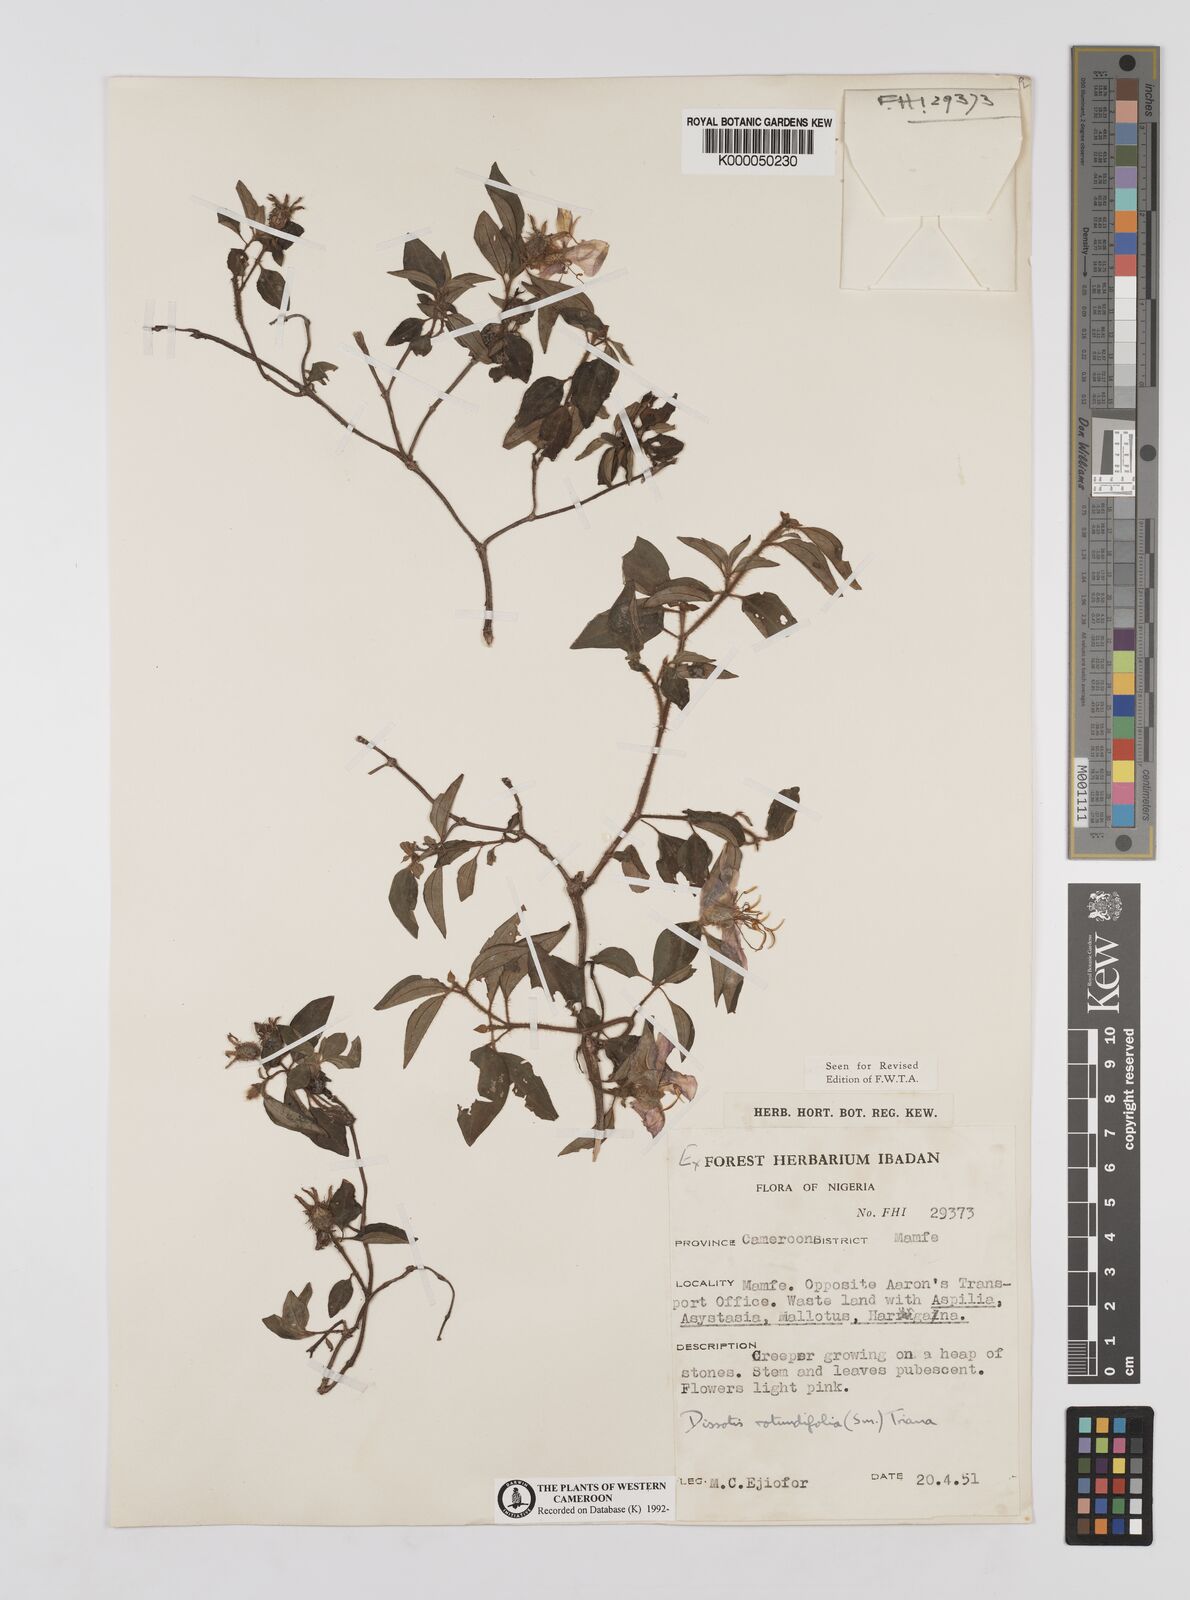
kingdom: Plantae
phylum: Tracheophyta
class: Magnoliopsida
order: Myrtales
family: Melastomataceae
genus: Heterotis
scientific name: Heterotis rotundifolia
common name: Pinklady
